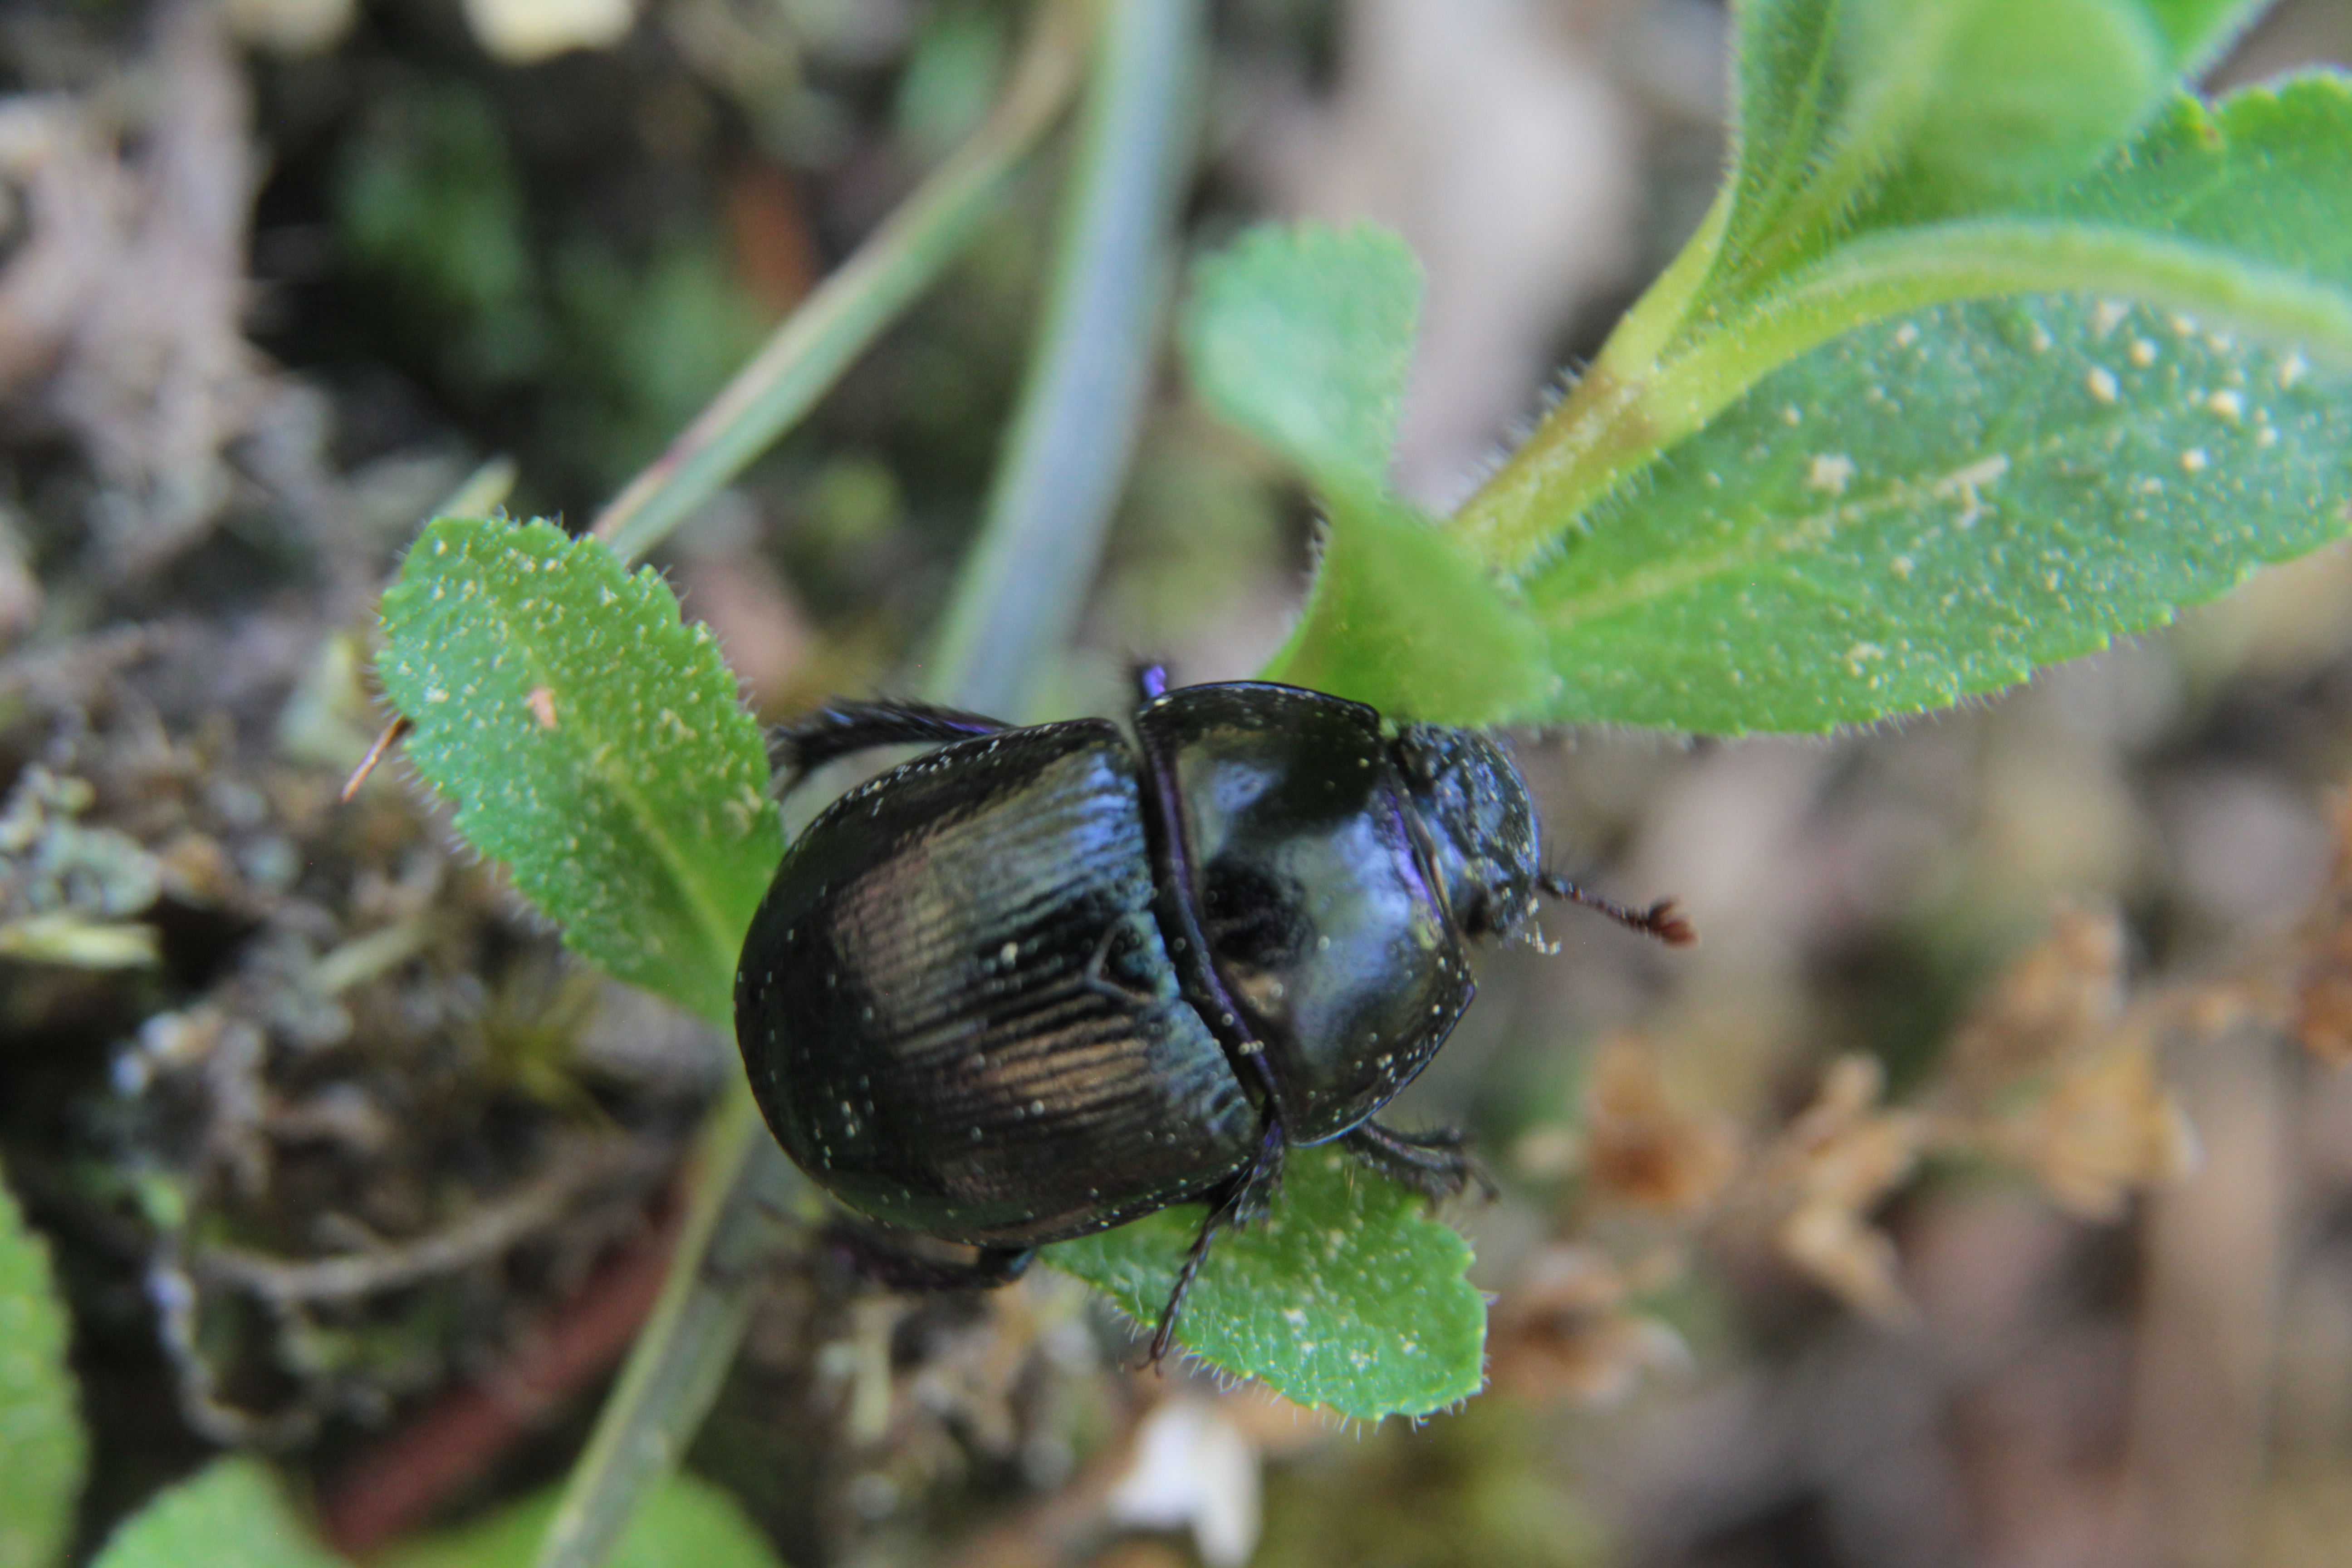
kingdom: Animalia
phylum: Arthropoda
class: Insecta
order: Coleoptera
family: Geotrupidae
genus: Anoplotrupes
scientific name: Anoplotrupes stercorosus
